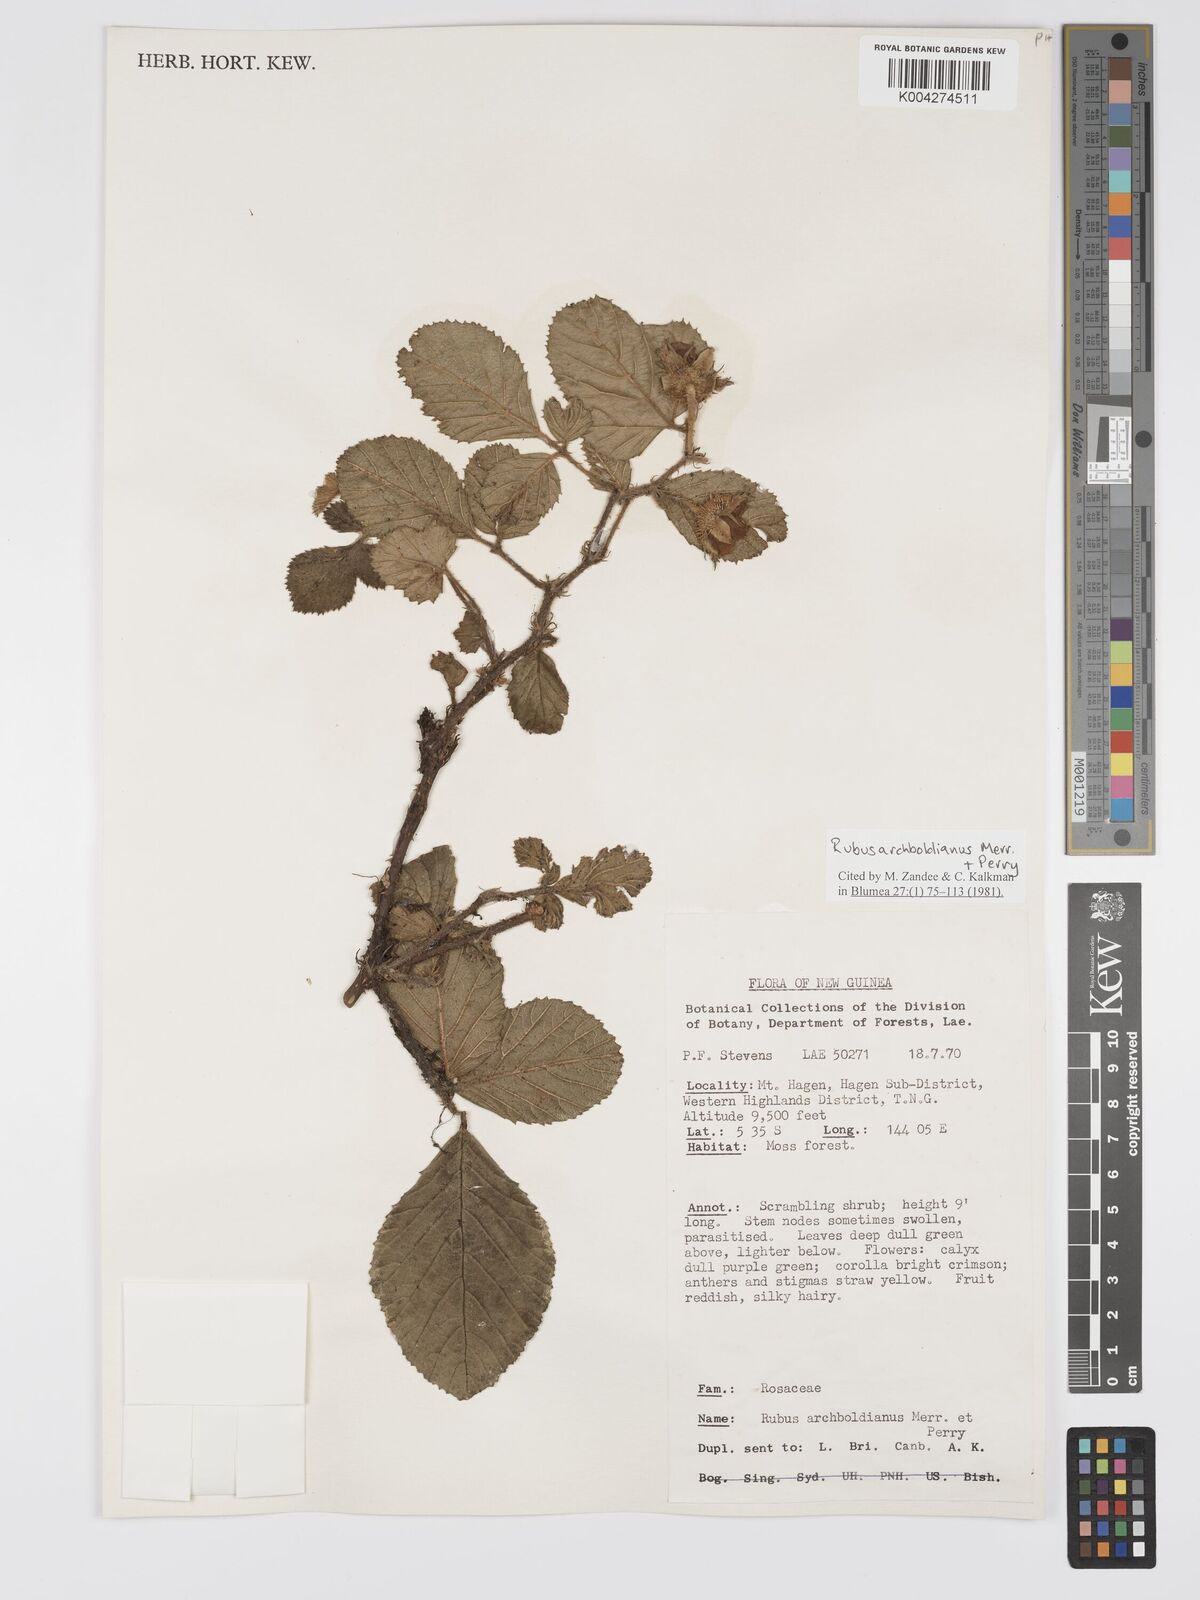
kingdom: Plantae
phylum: Tracheophyta
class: Magnoliopsida
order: Rosales
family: Rosaceae
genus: Rubus
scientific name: Rubus archboldianus
